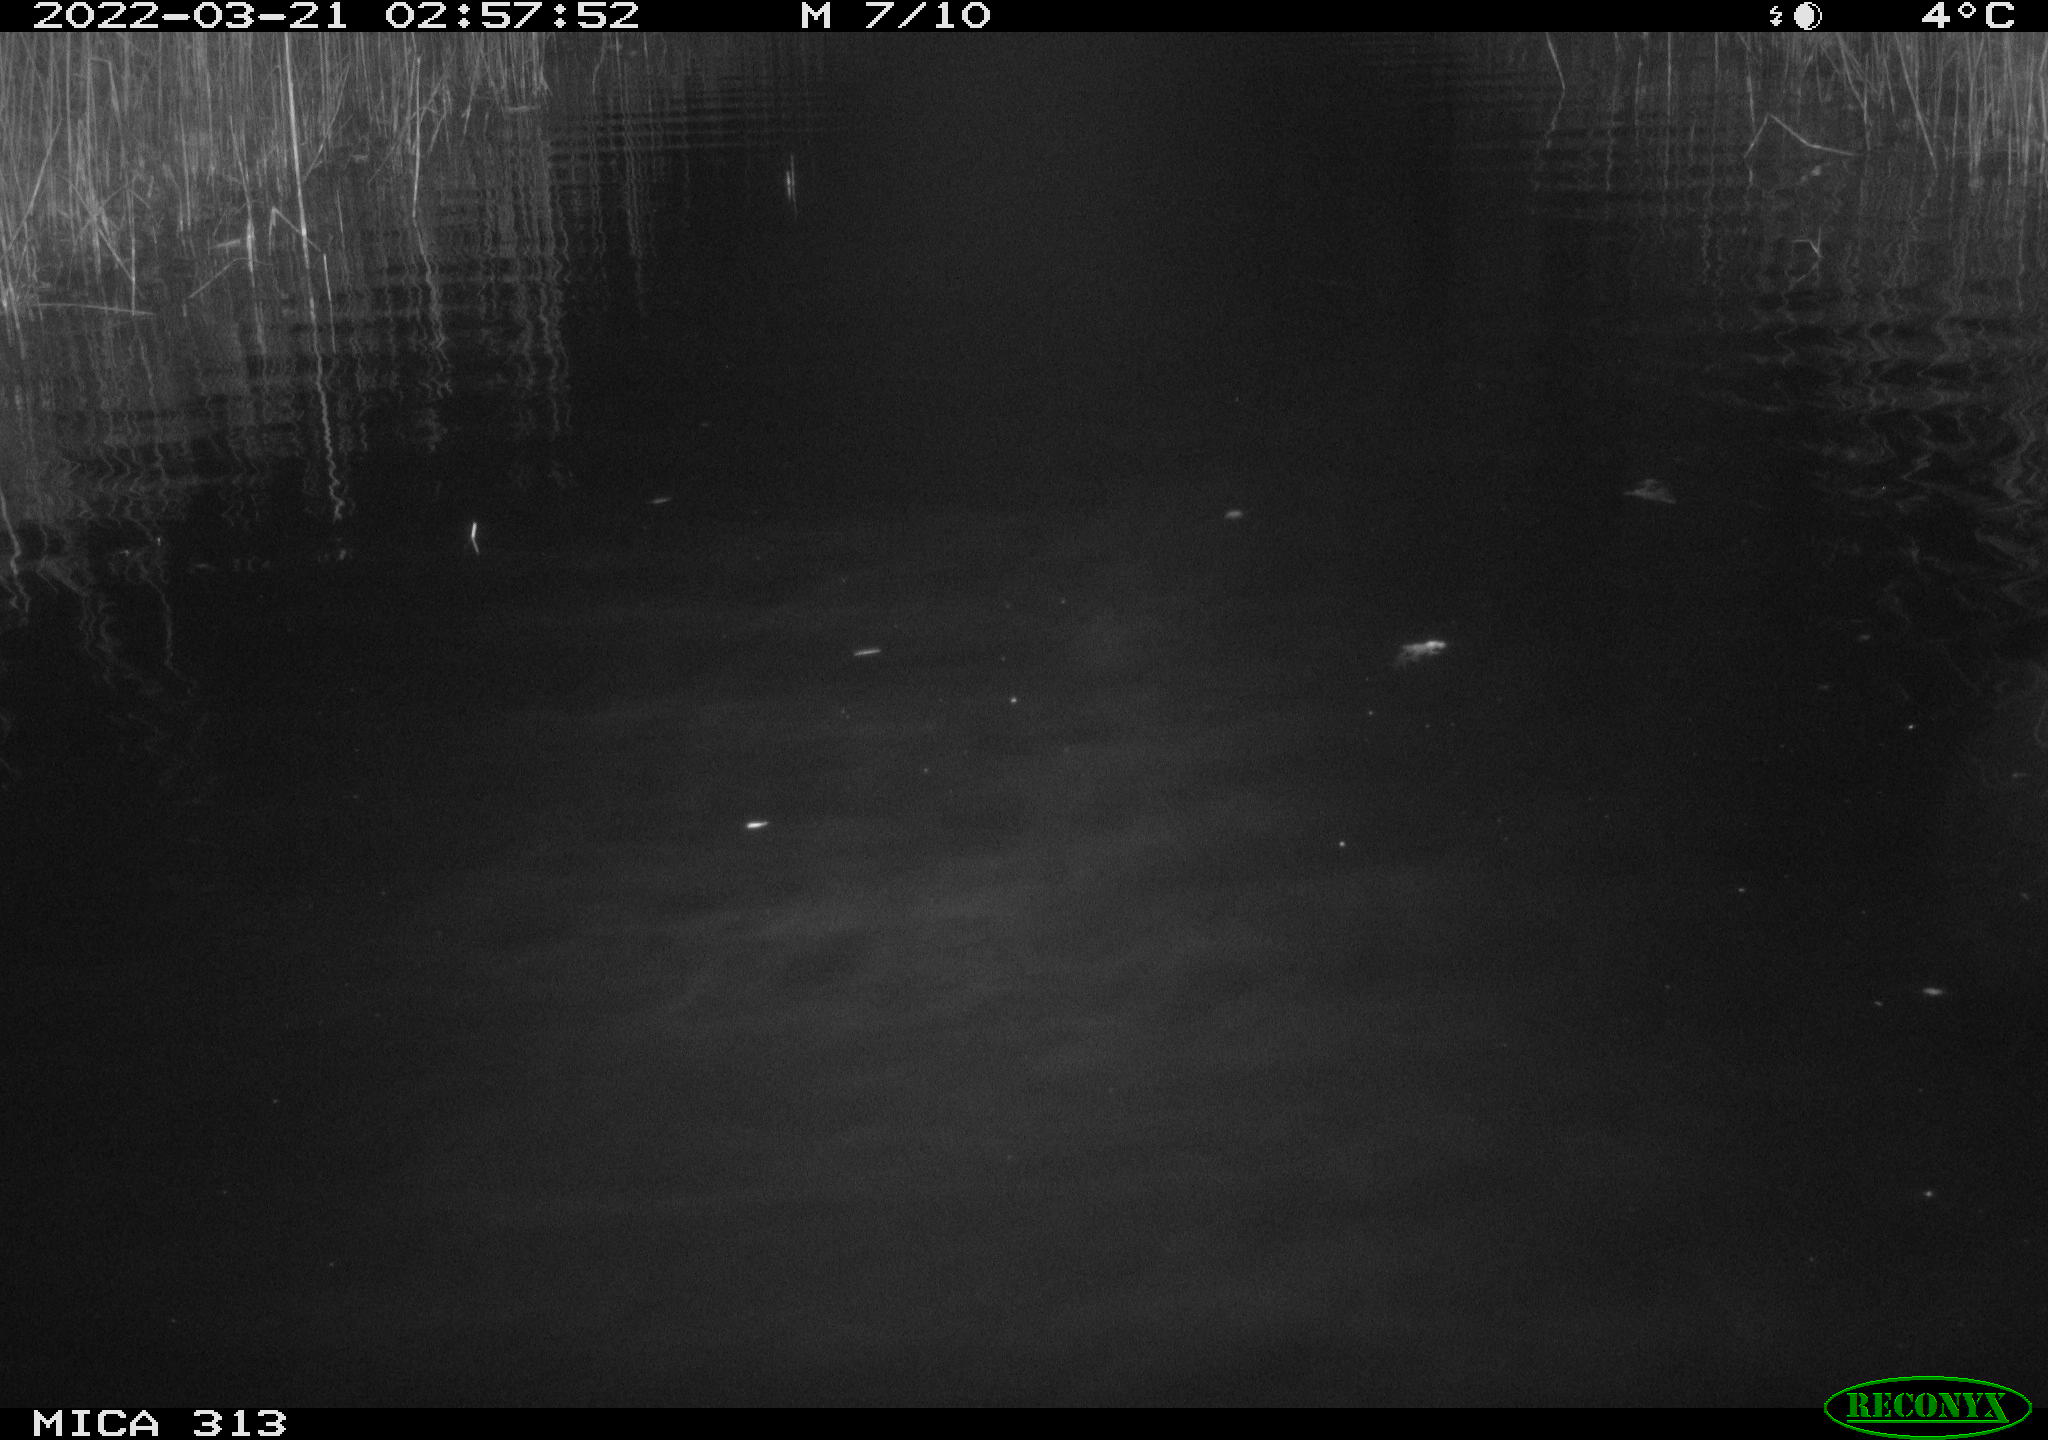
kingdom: Animalia
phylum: Chordata
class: Aves
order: Anseriformes
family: Anatidae
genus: Anas
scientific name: Anas platyrhynchos
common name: Mallard
